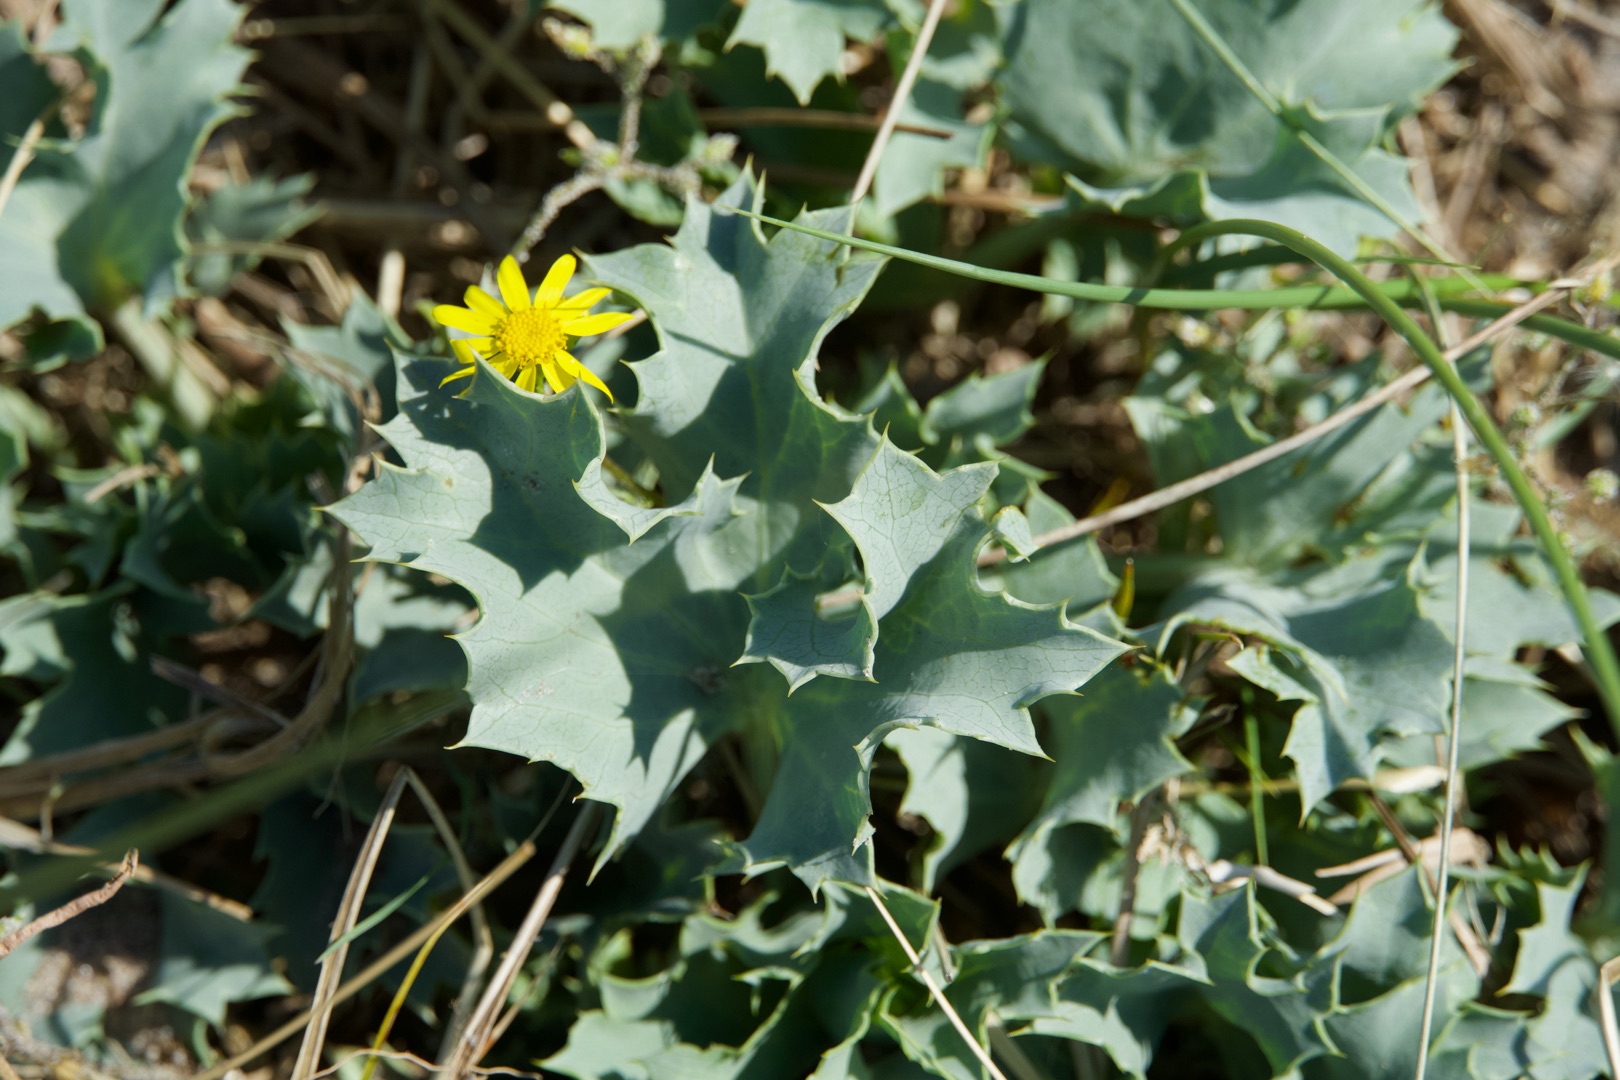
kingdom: Plantae
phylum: Tracheophyta
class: Magnoliopsida
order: Apiales
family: Apiaceae
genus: Eryngium
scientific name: Eryngium maritimum
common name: Strand-mandstro
